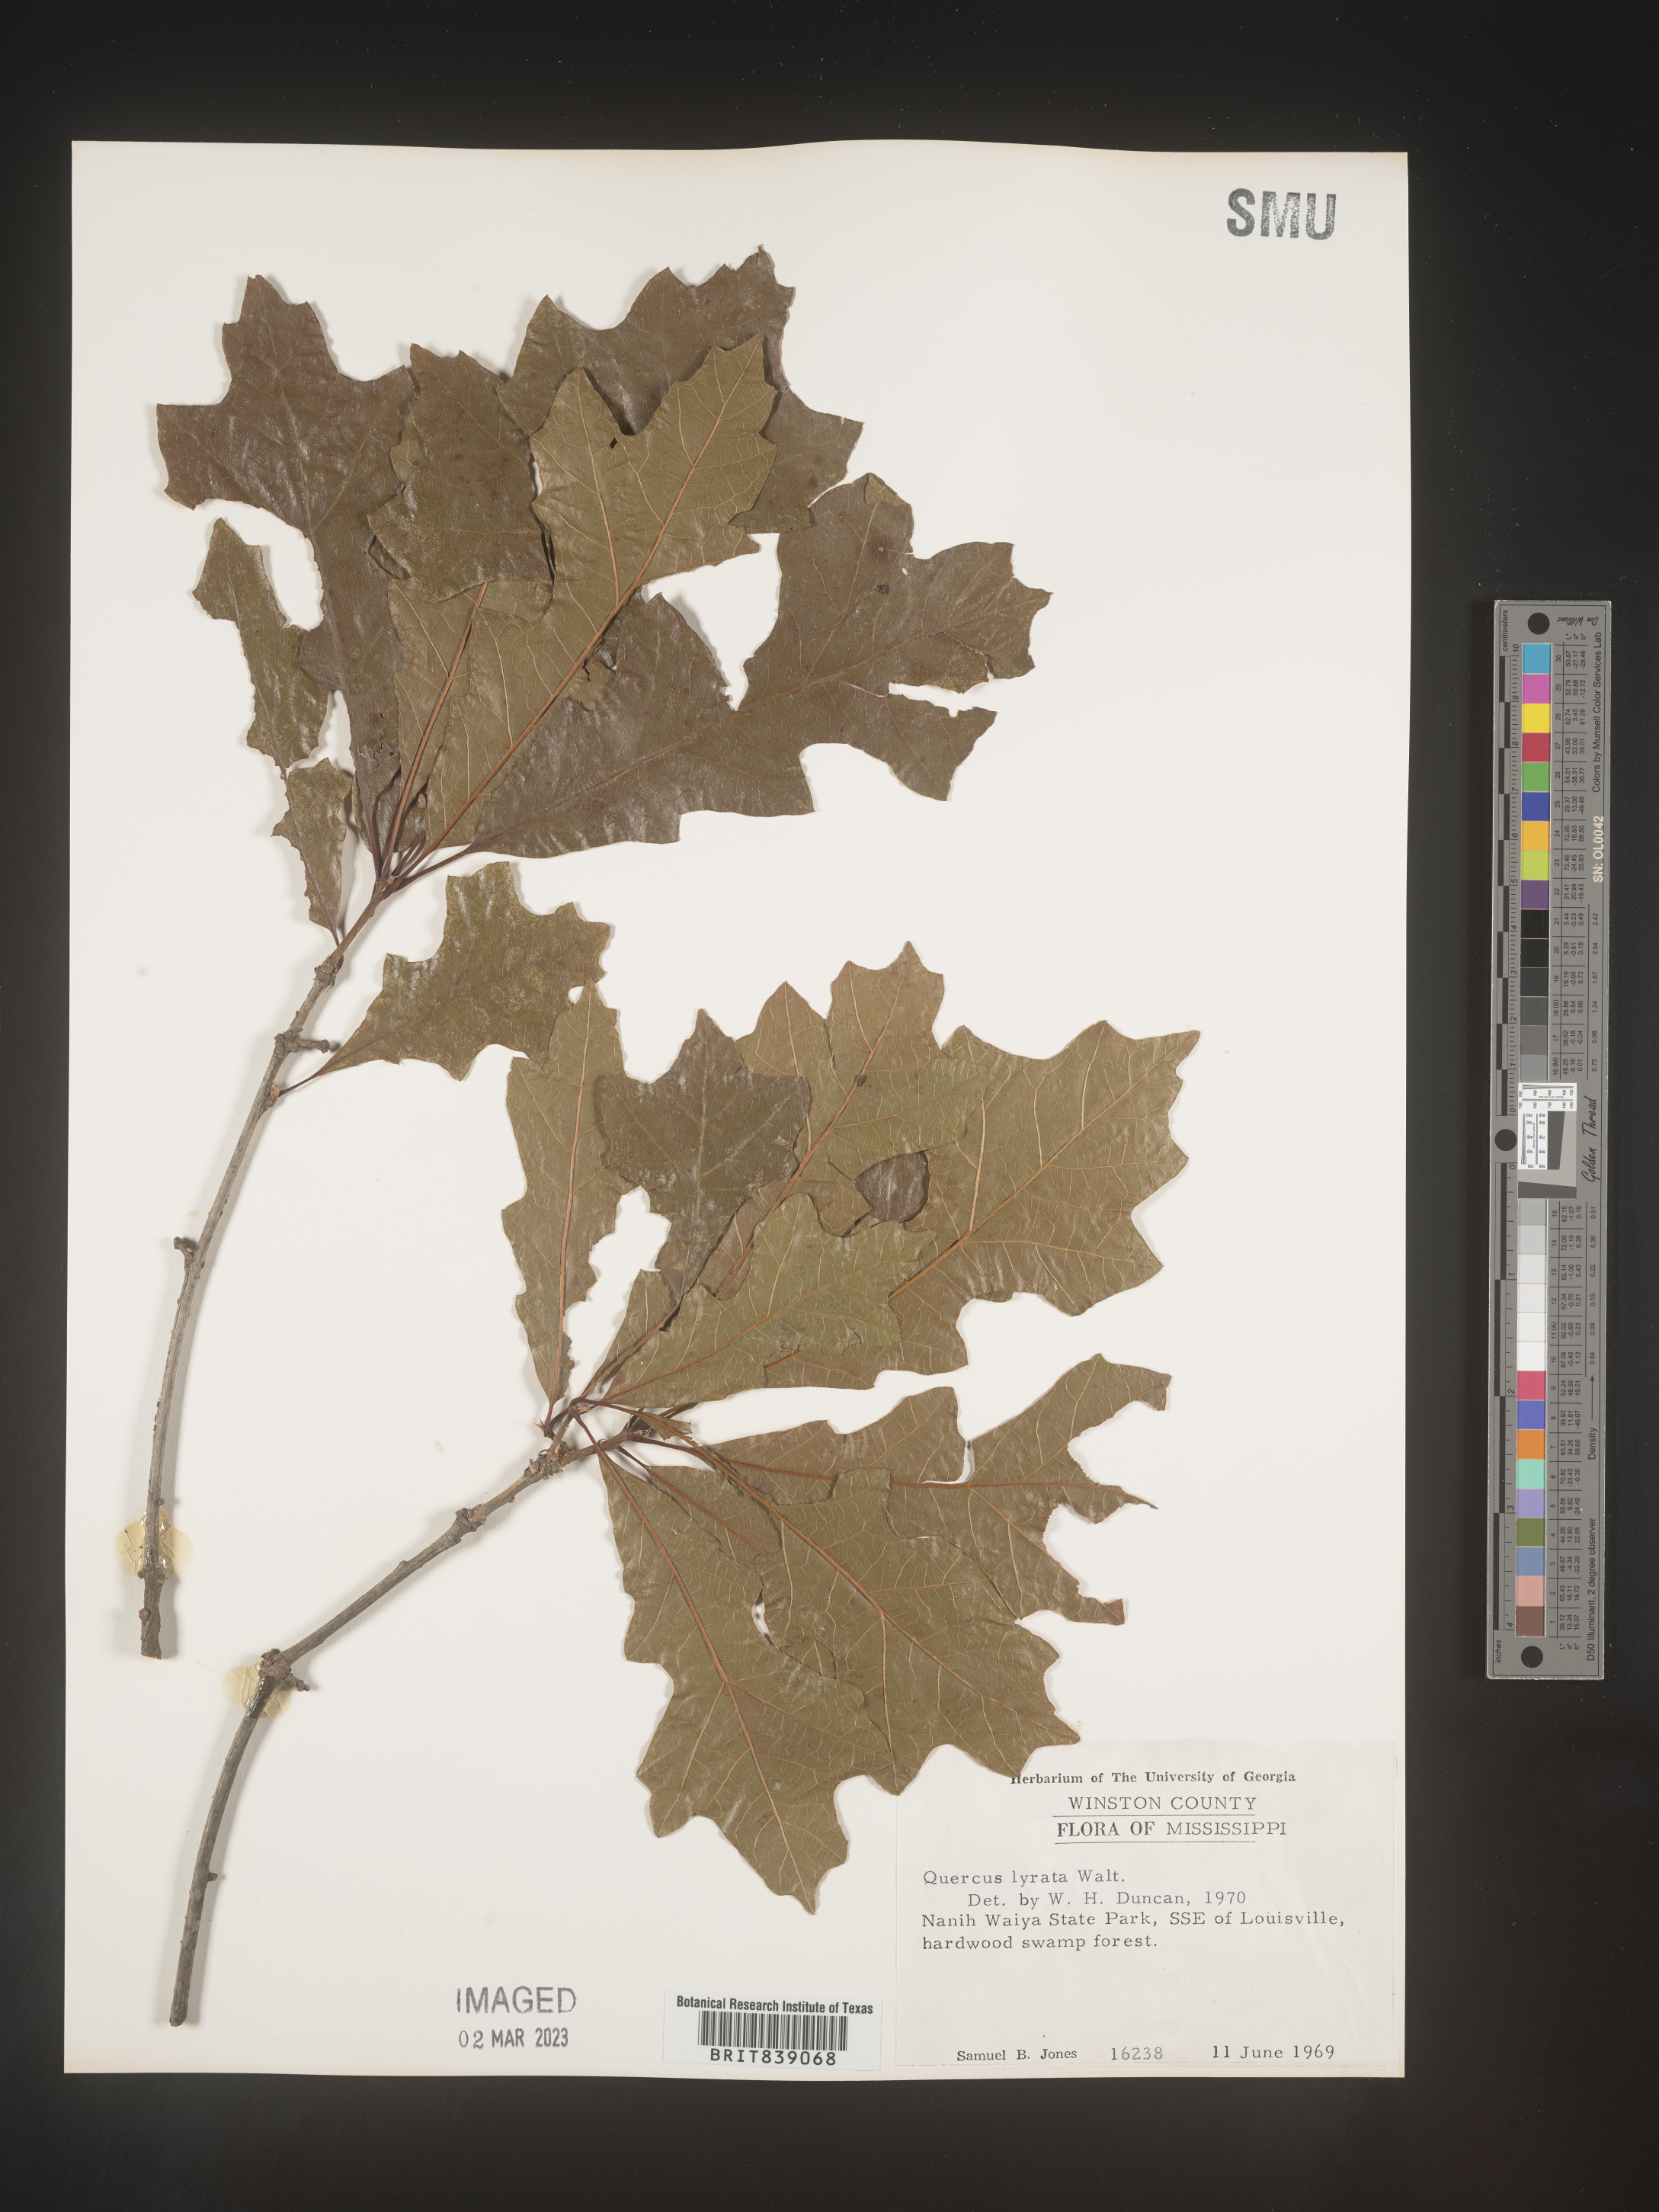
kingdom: Plantae
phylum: Tracheophyta
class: Magnoliopsida
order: Fagales
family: Fagaceae
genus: Quercus
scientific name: Quercus lyrata
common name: Overcup oak
